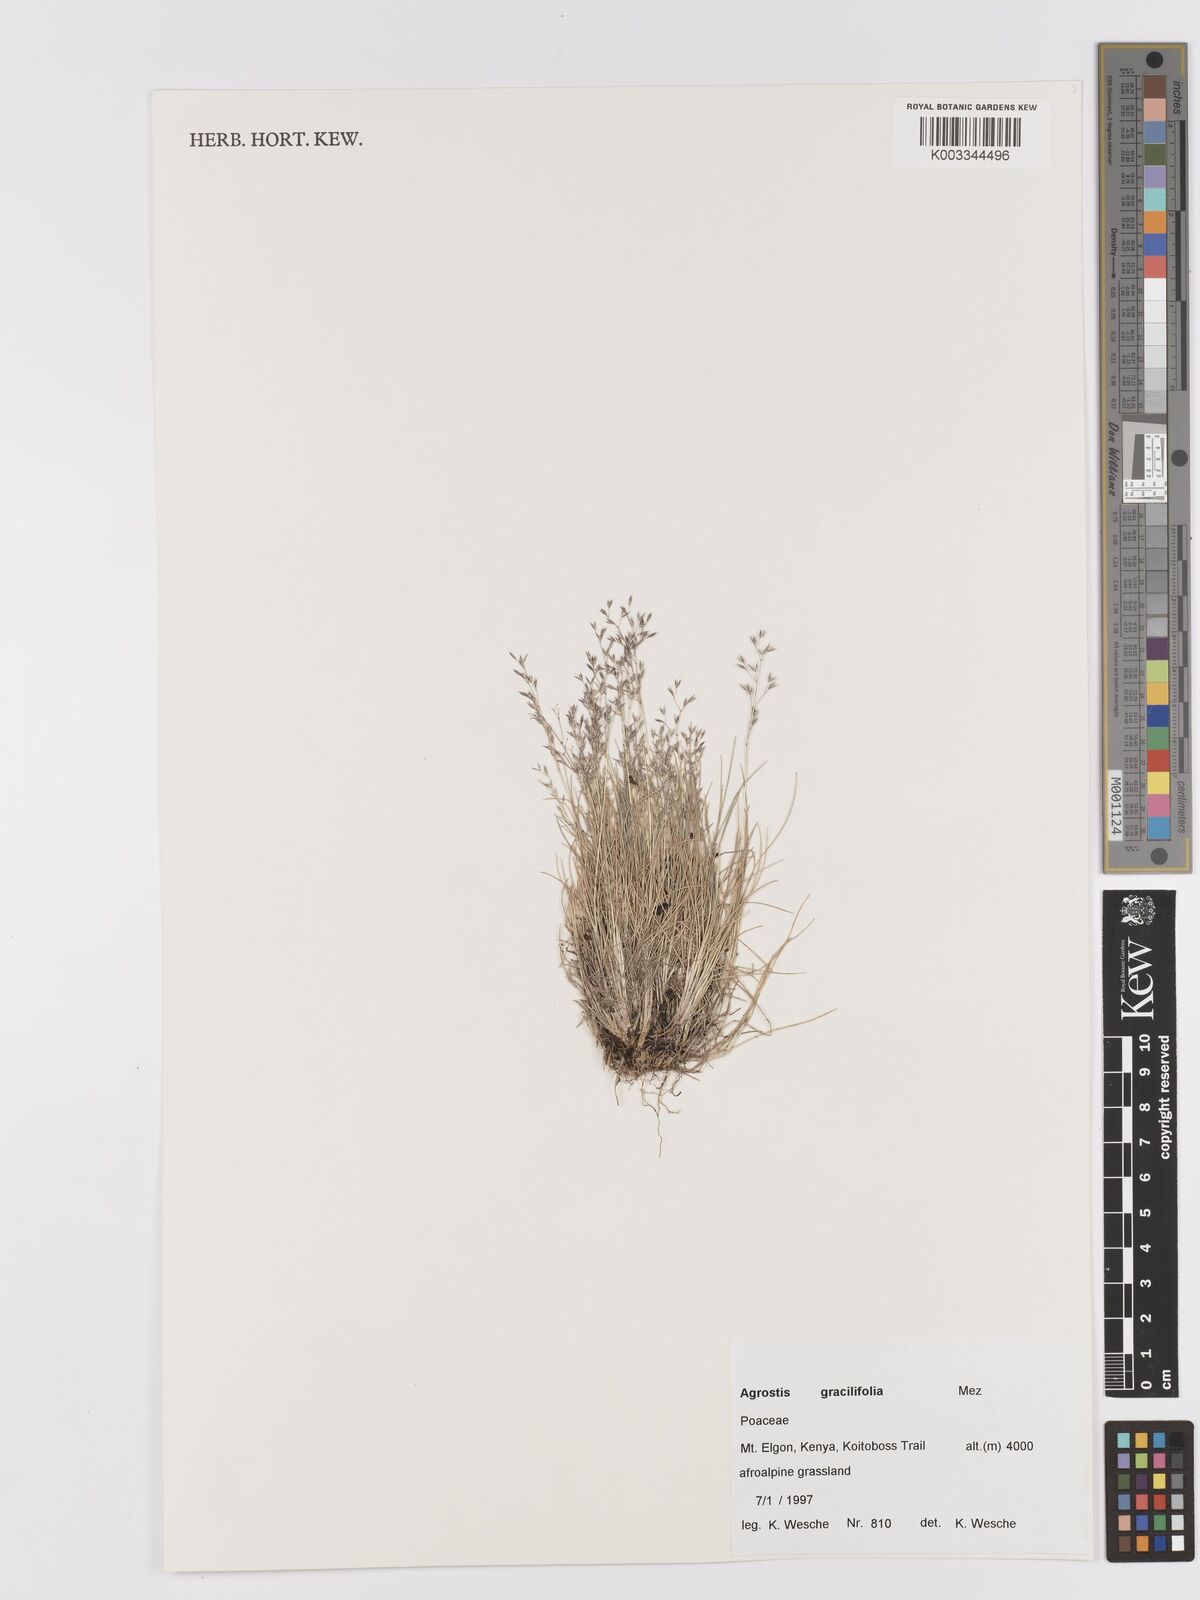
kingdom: Plantae
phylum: Tracheophyta
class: Liliopsida
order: Poales
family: Poaceae
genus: Agrostis
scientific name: Agrostis gracilifolia
